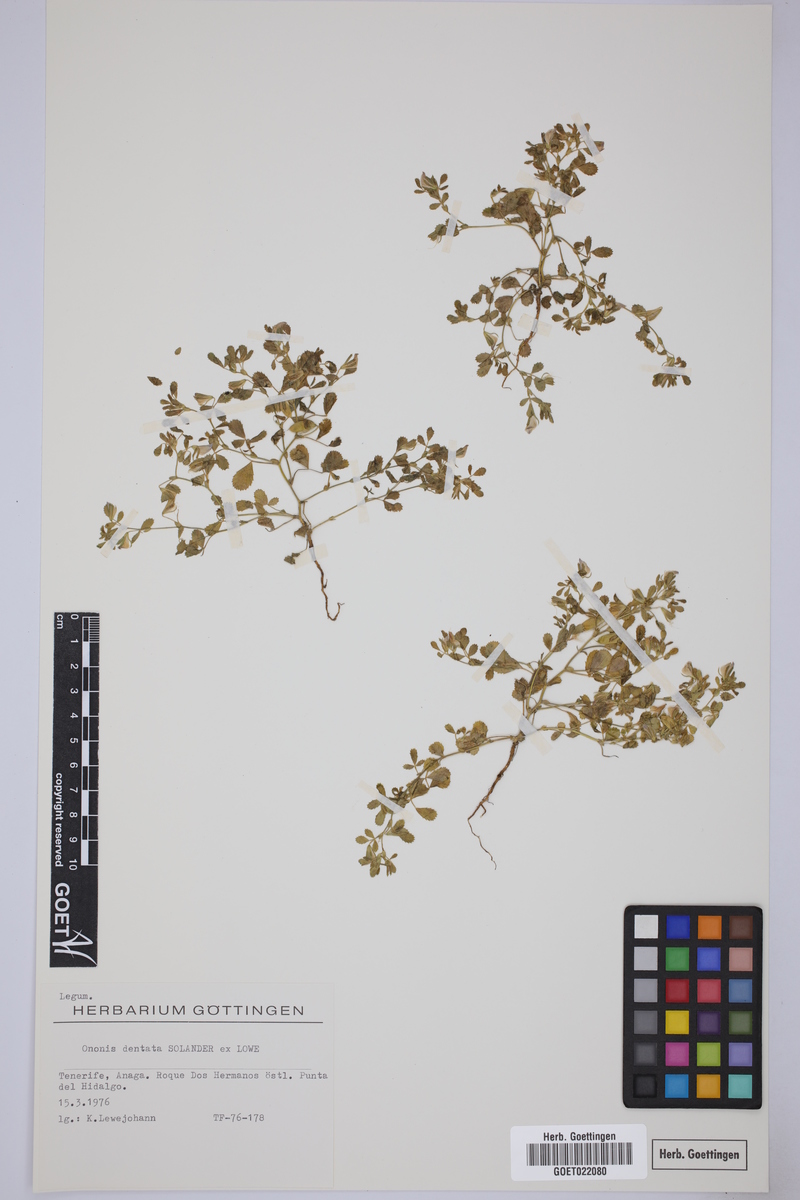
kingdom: Plantae
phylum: Tracheophyta
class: Magnoliopsida
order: Fabales
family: Fabaceae
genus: Ononis
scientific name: Ononis dentata
